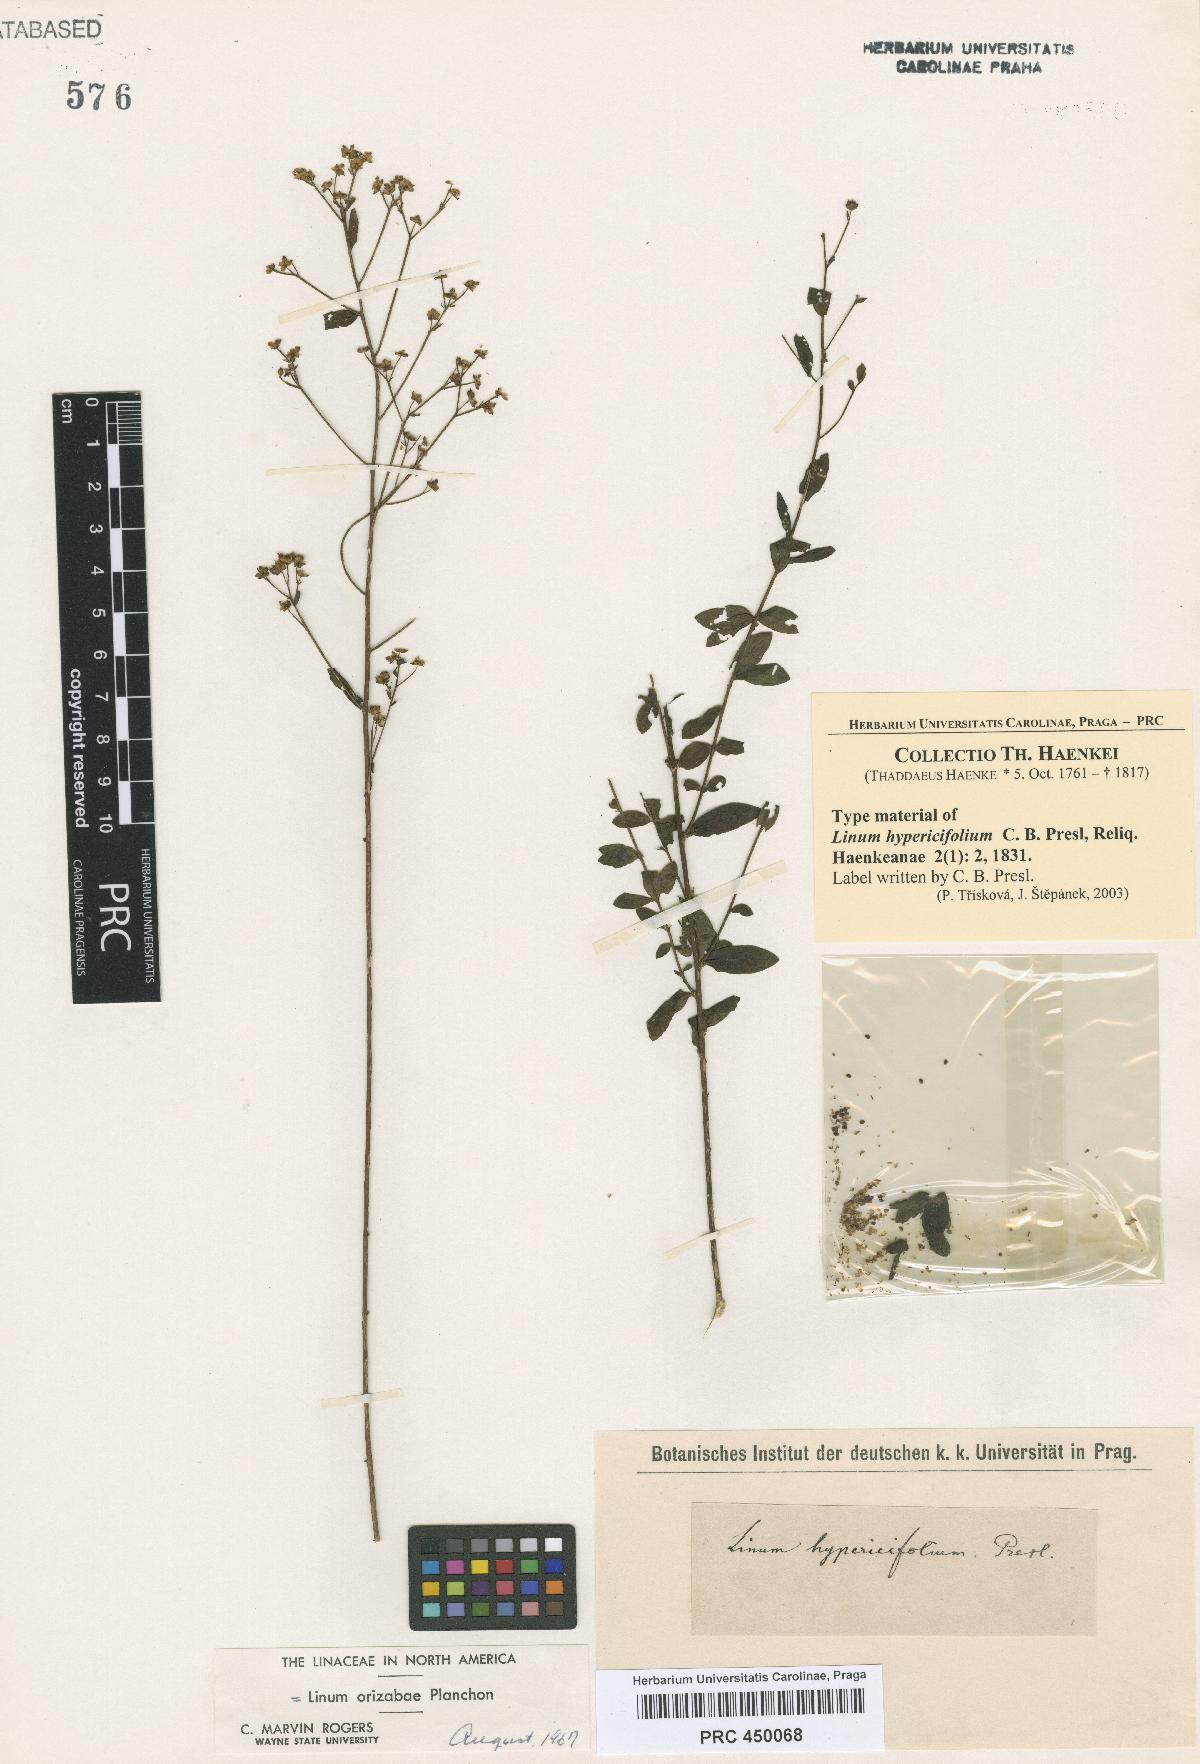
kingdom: Plantae
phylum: Tracheophyta
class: Magnoliopsida
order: Malpighiales
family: Linaceae
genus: Linum
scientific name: Linum orizabae
